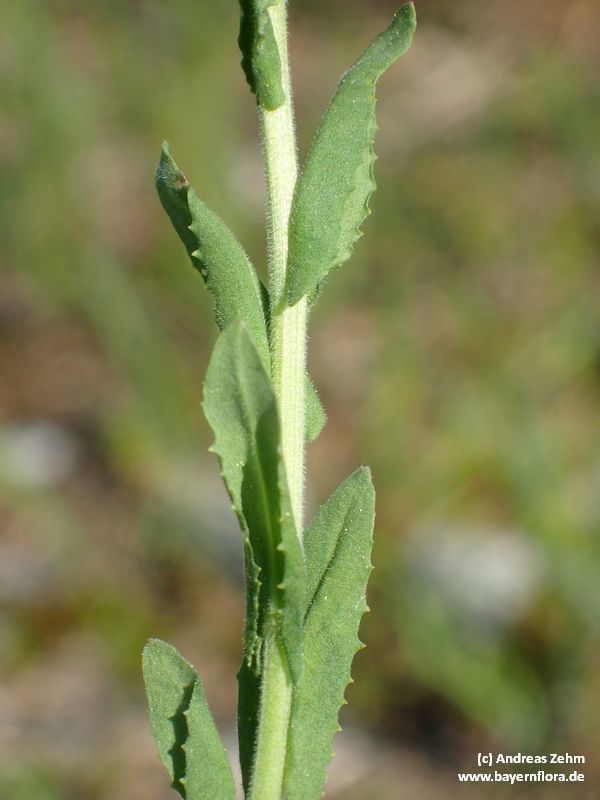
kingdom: Plantae
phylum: Tracheophyta
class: Magnoliopsida
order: Brassicales
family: Brassicaceae
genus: Lepidium
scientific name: Lepidium campestre
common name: Field pepperwort
